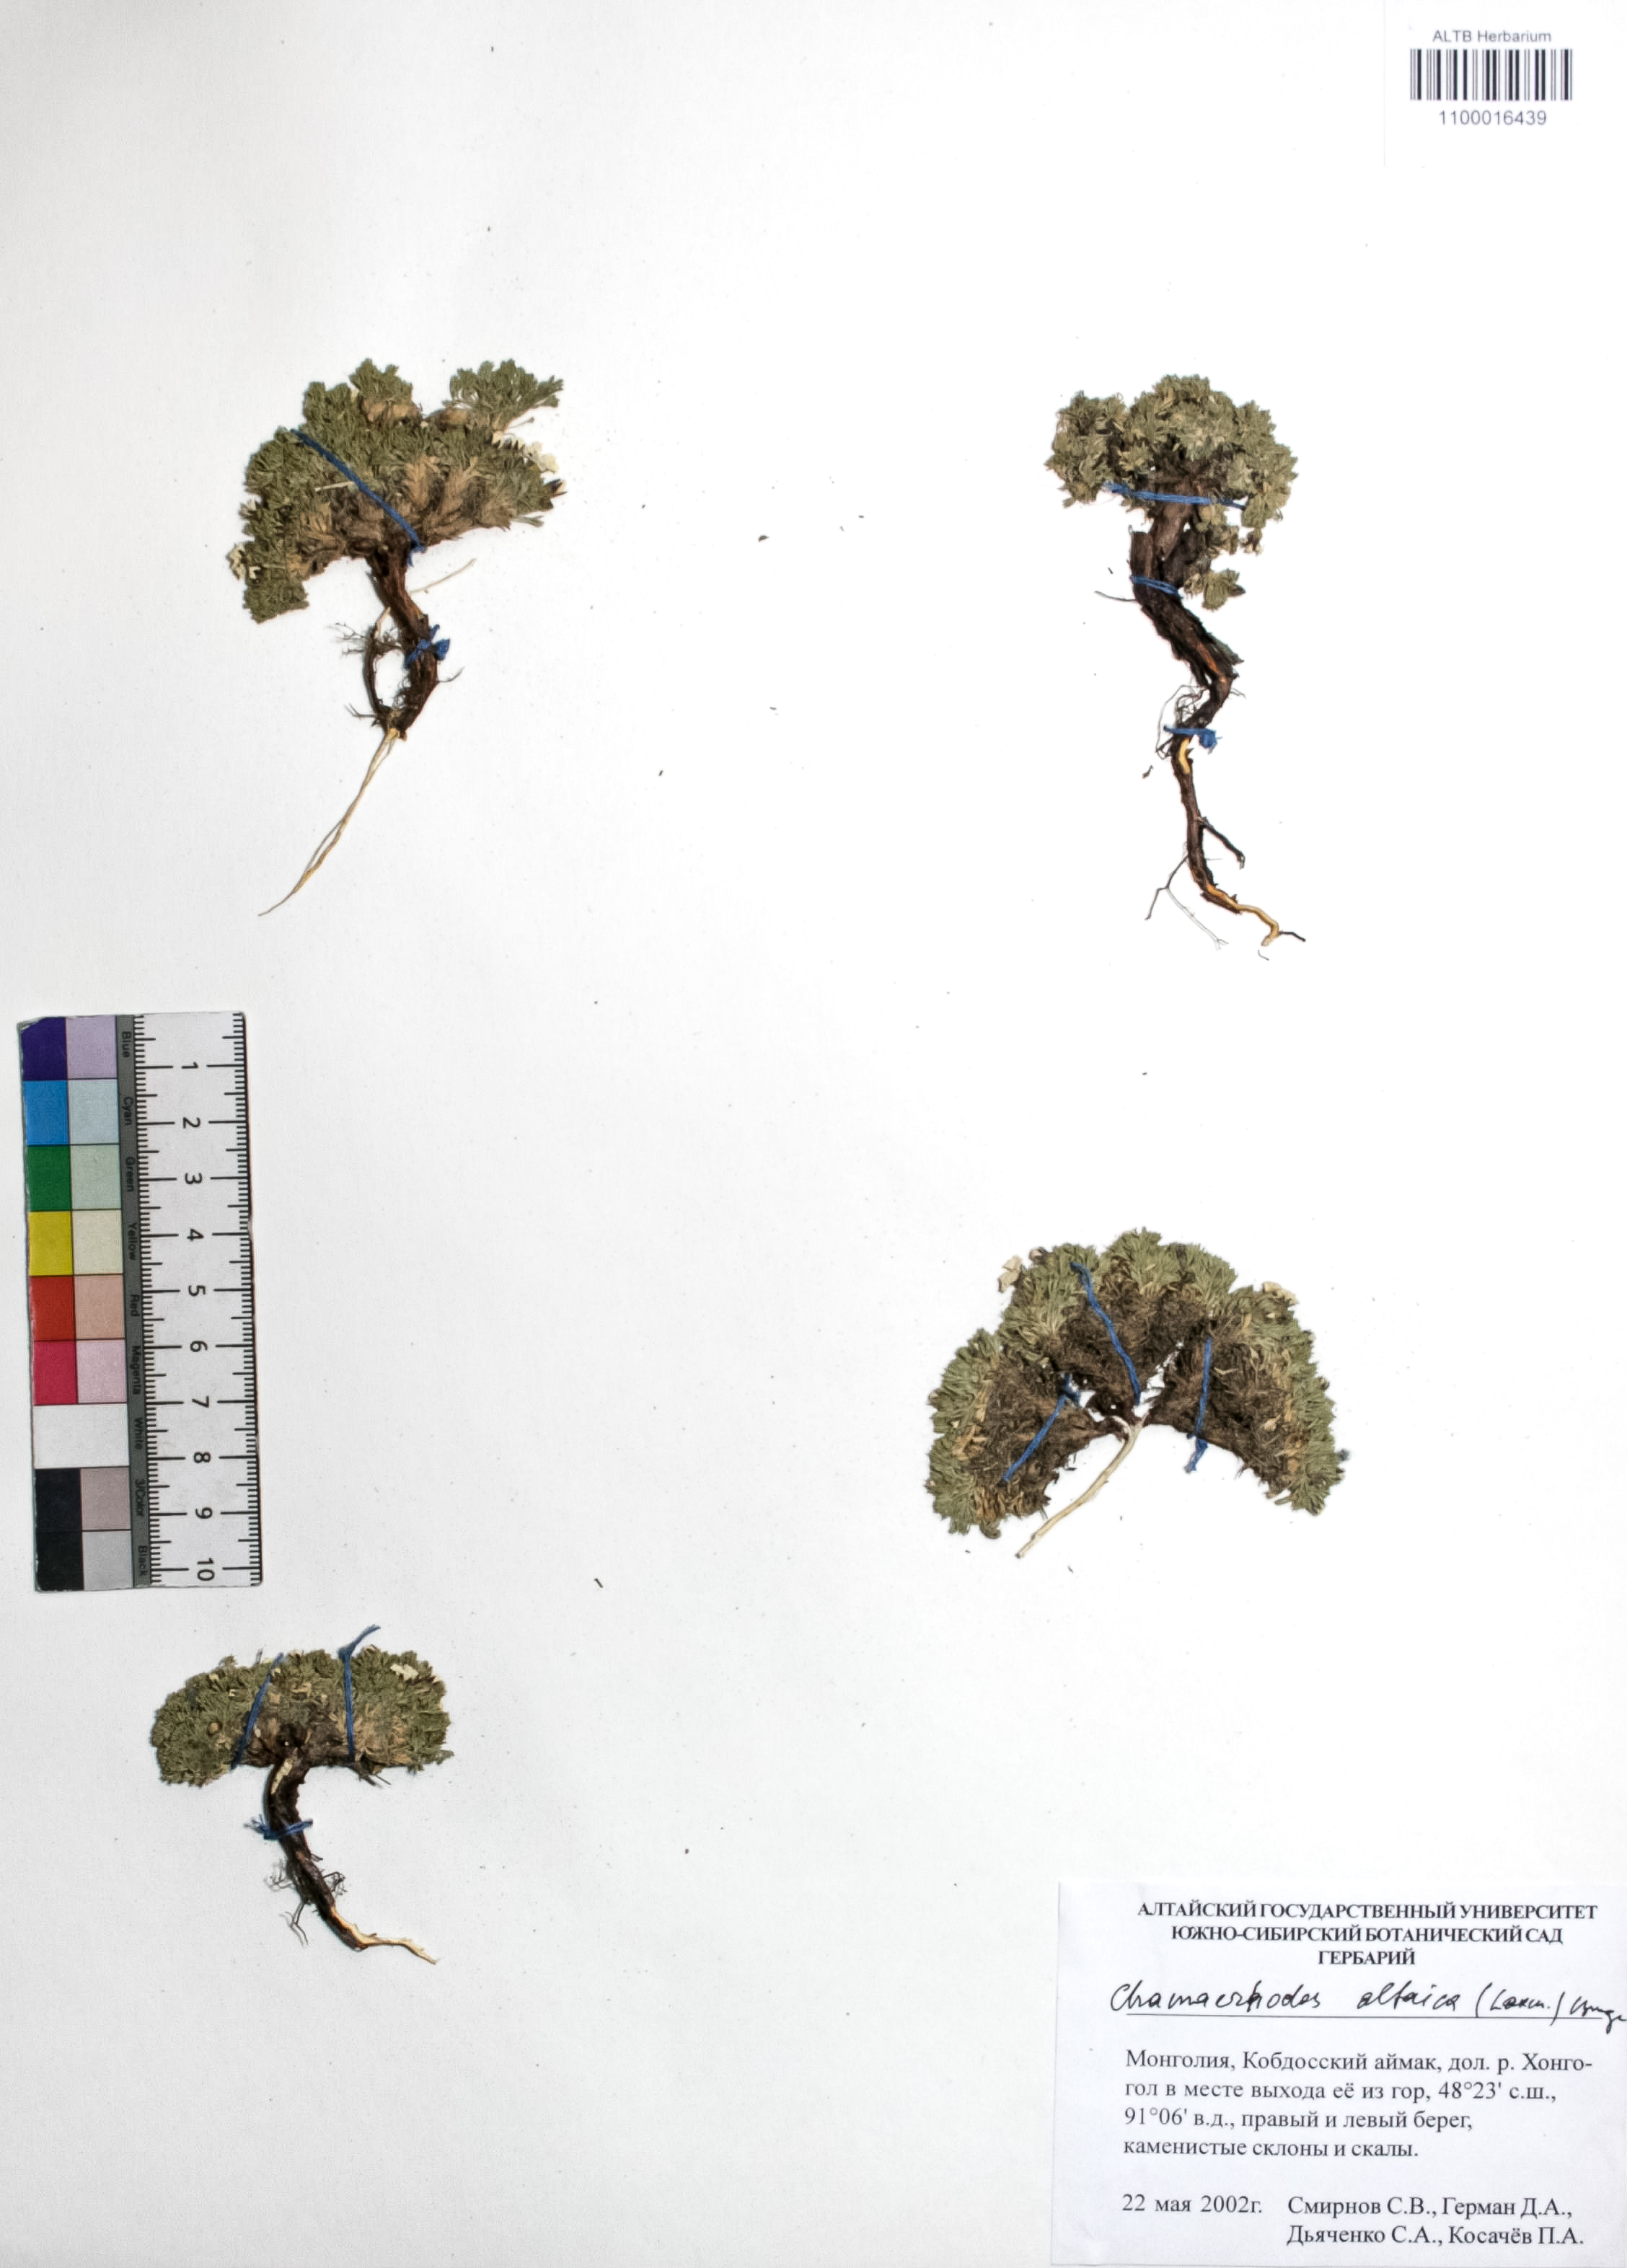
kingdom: Plantae
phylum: Tracheophyta
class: Magnoliopsida
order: Rosales
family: Rosaceae
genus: Chamaerhodos
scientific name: Chamaerhodos altaica
